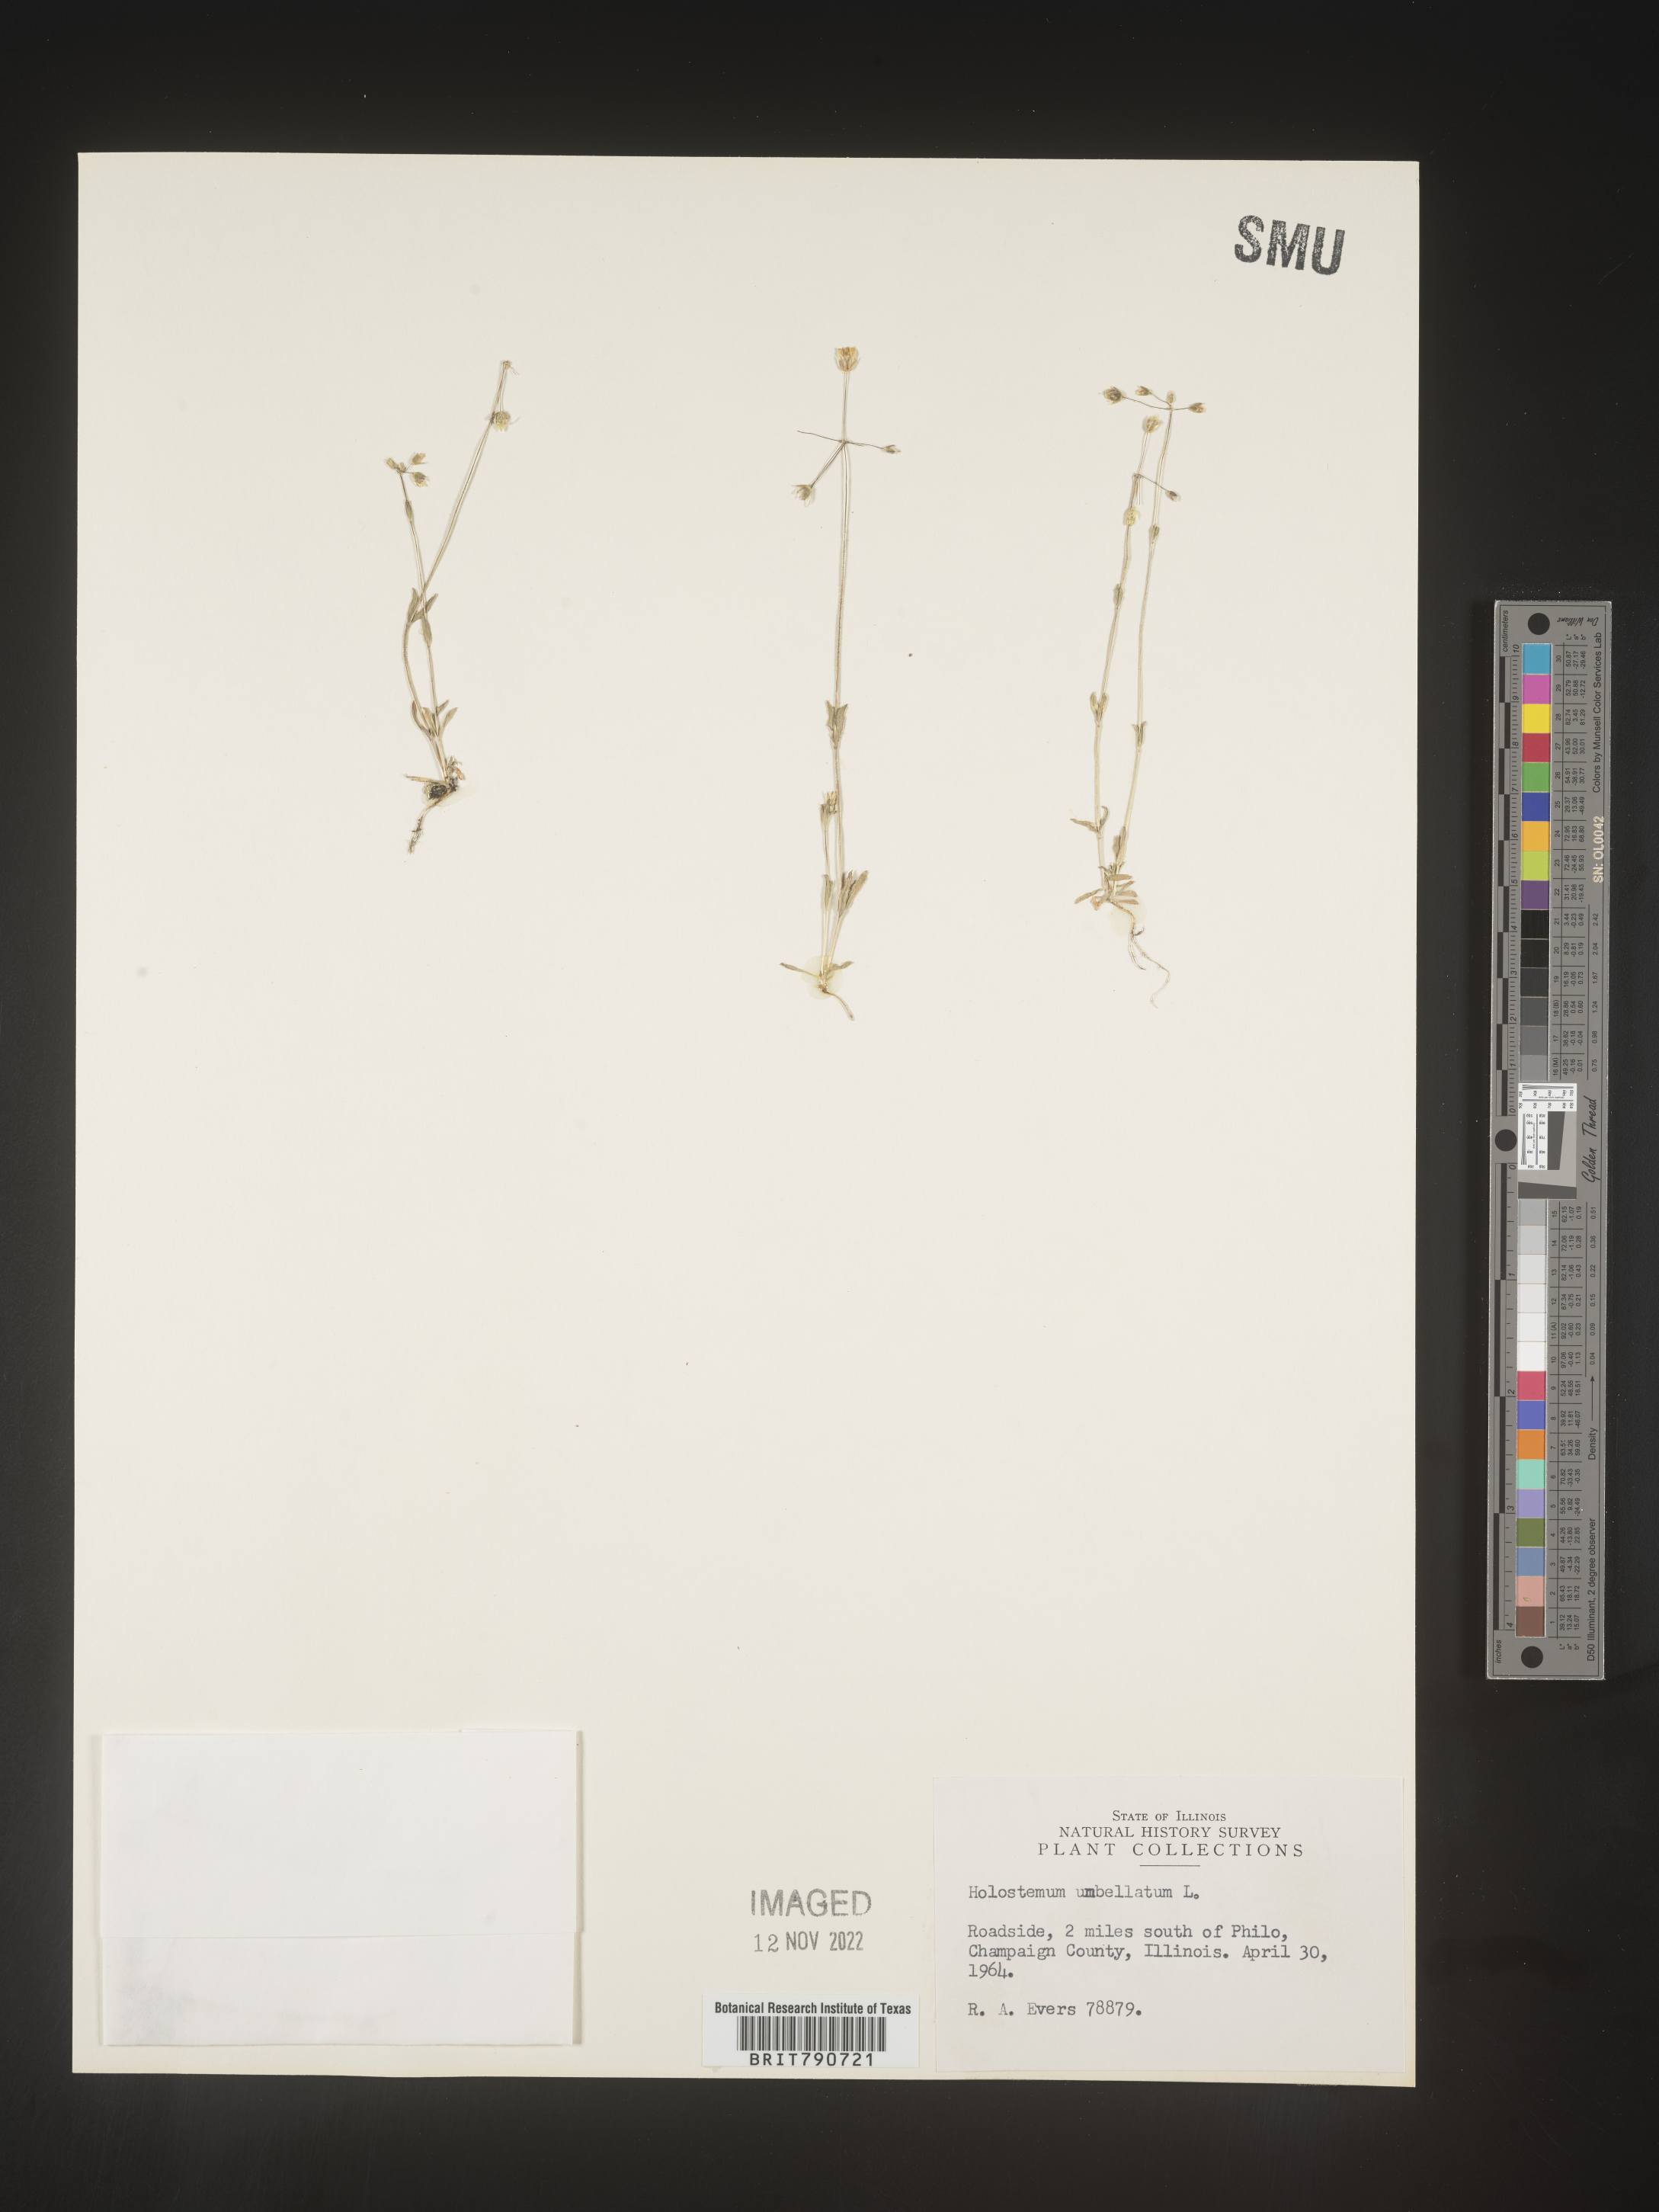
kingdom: Plantae
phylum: Tracheophyta
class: Magnoliopsida
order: Caryophyllales
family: Caryophyllaceae
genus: Holosteum
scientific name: Holosteum
